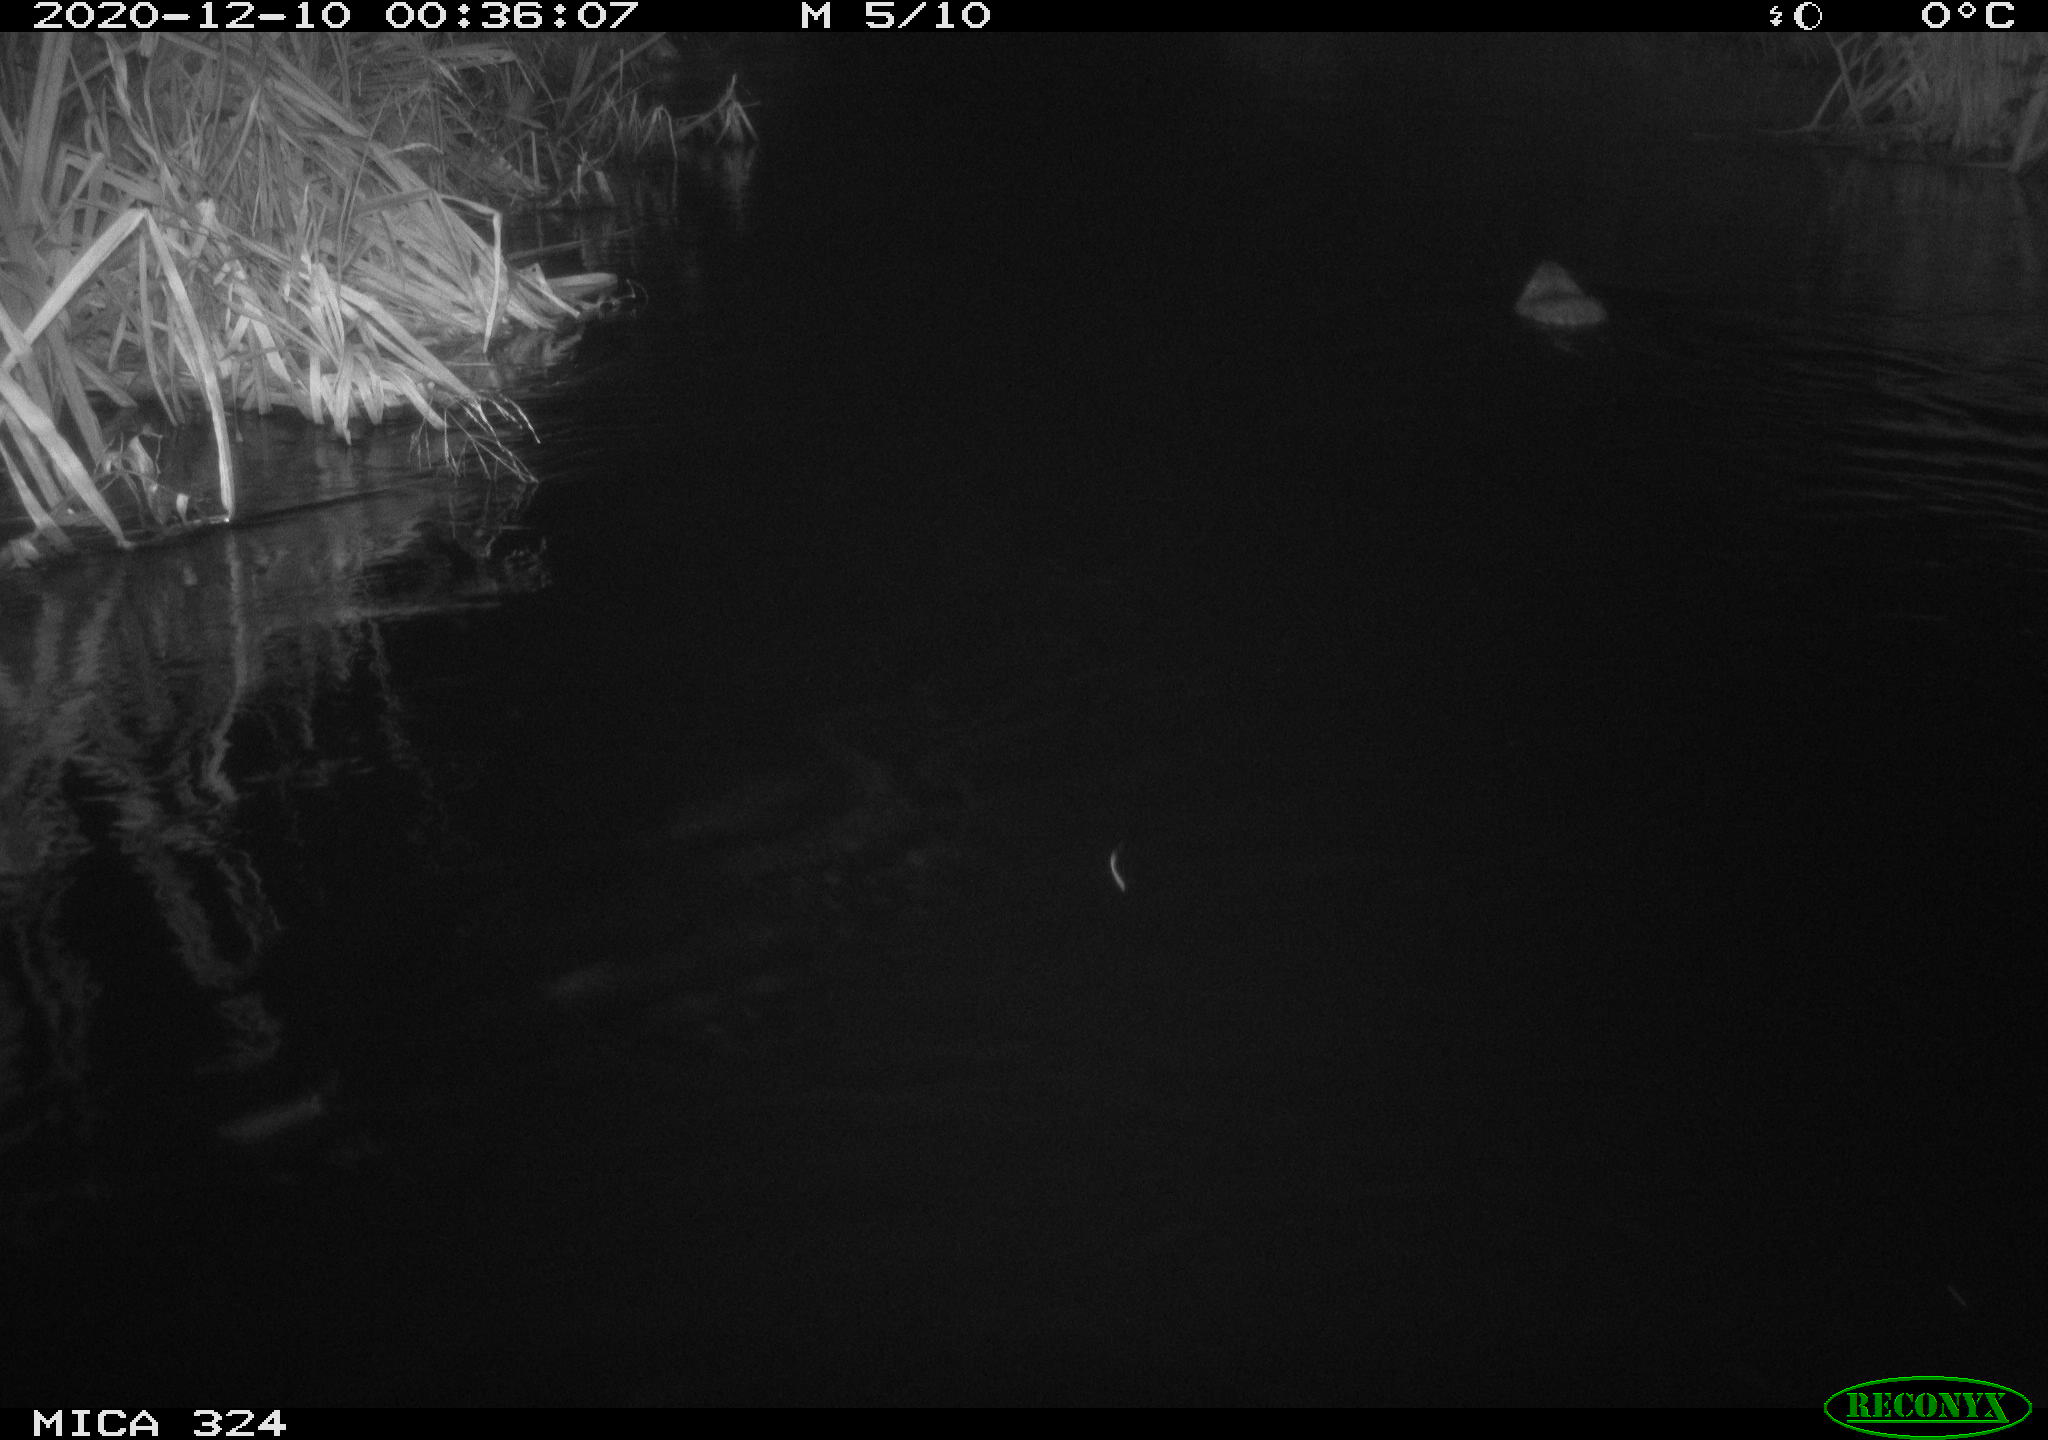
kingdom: Animalia
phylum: Chordata
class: Mammalia
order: Rodentia
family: Myocastoridae
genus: Myocastor
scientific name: Myocastor coypus
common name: Coypu
